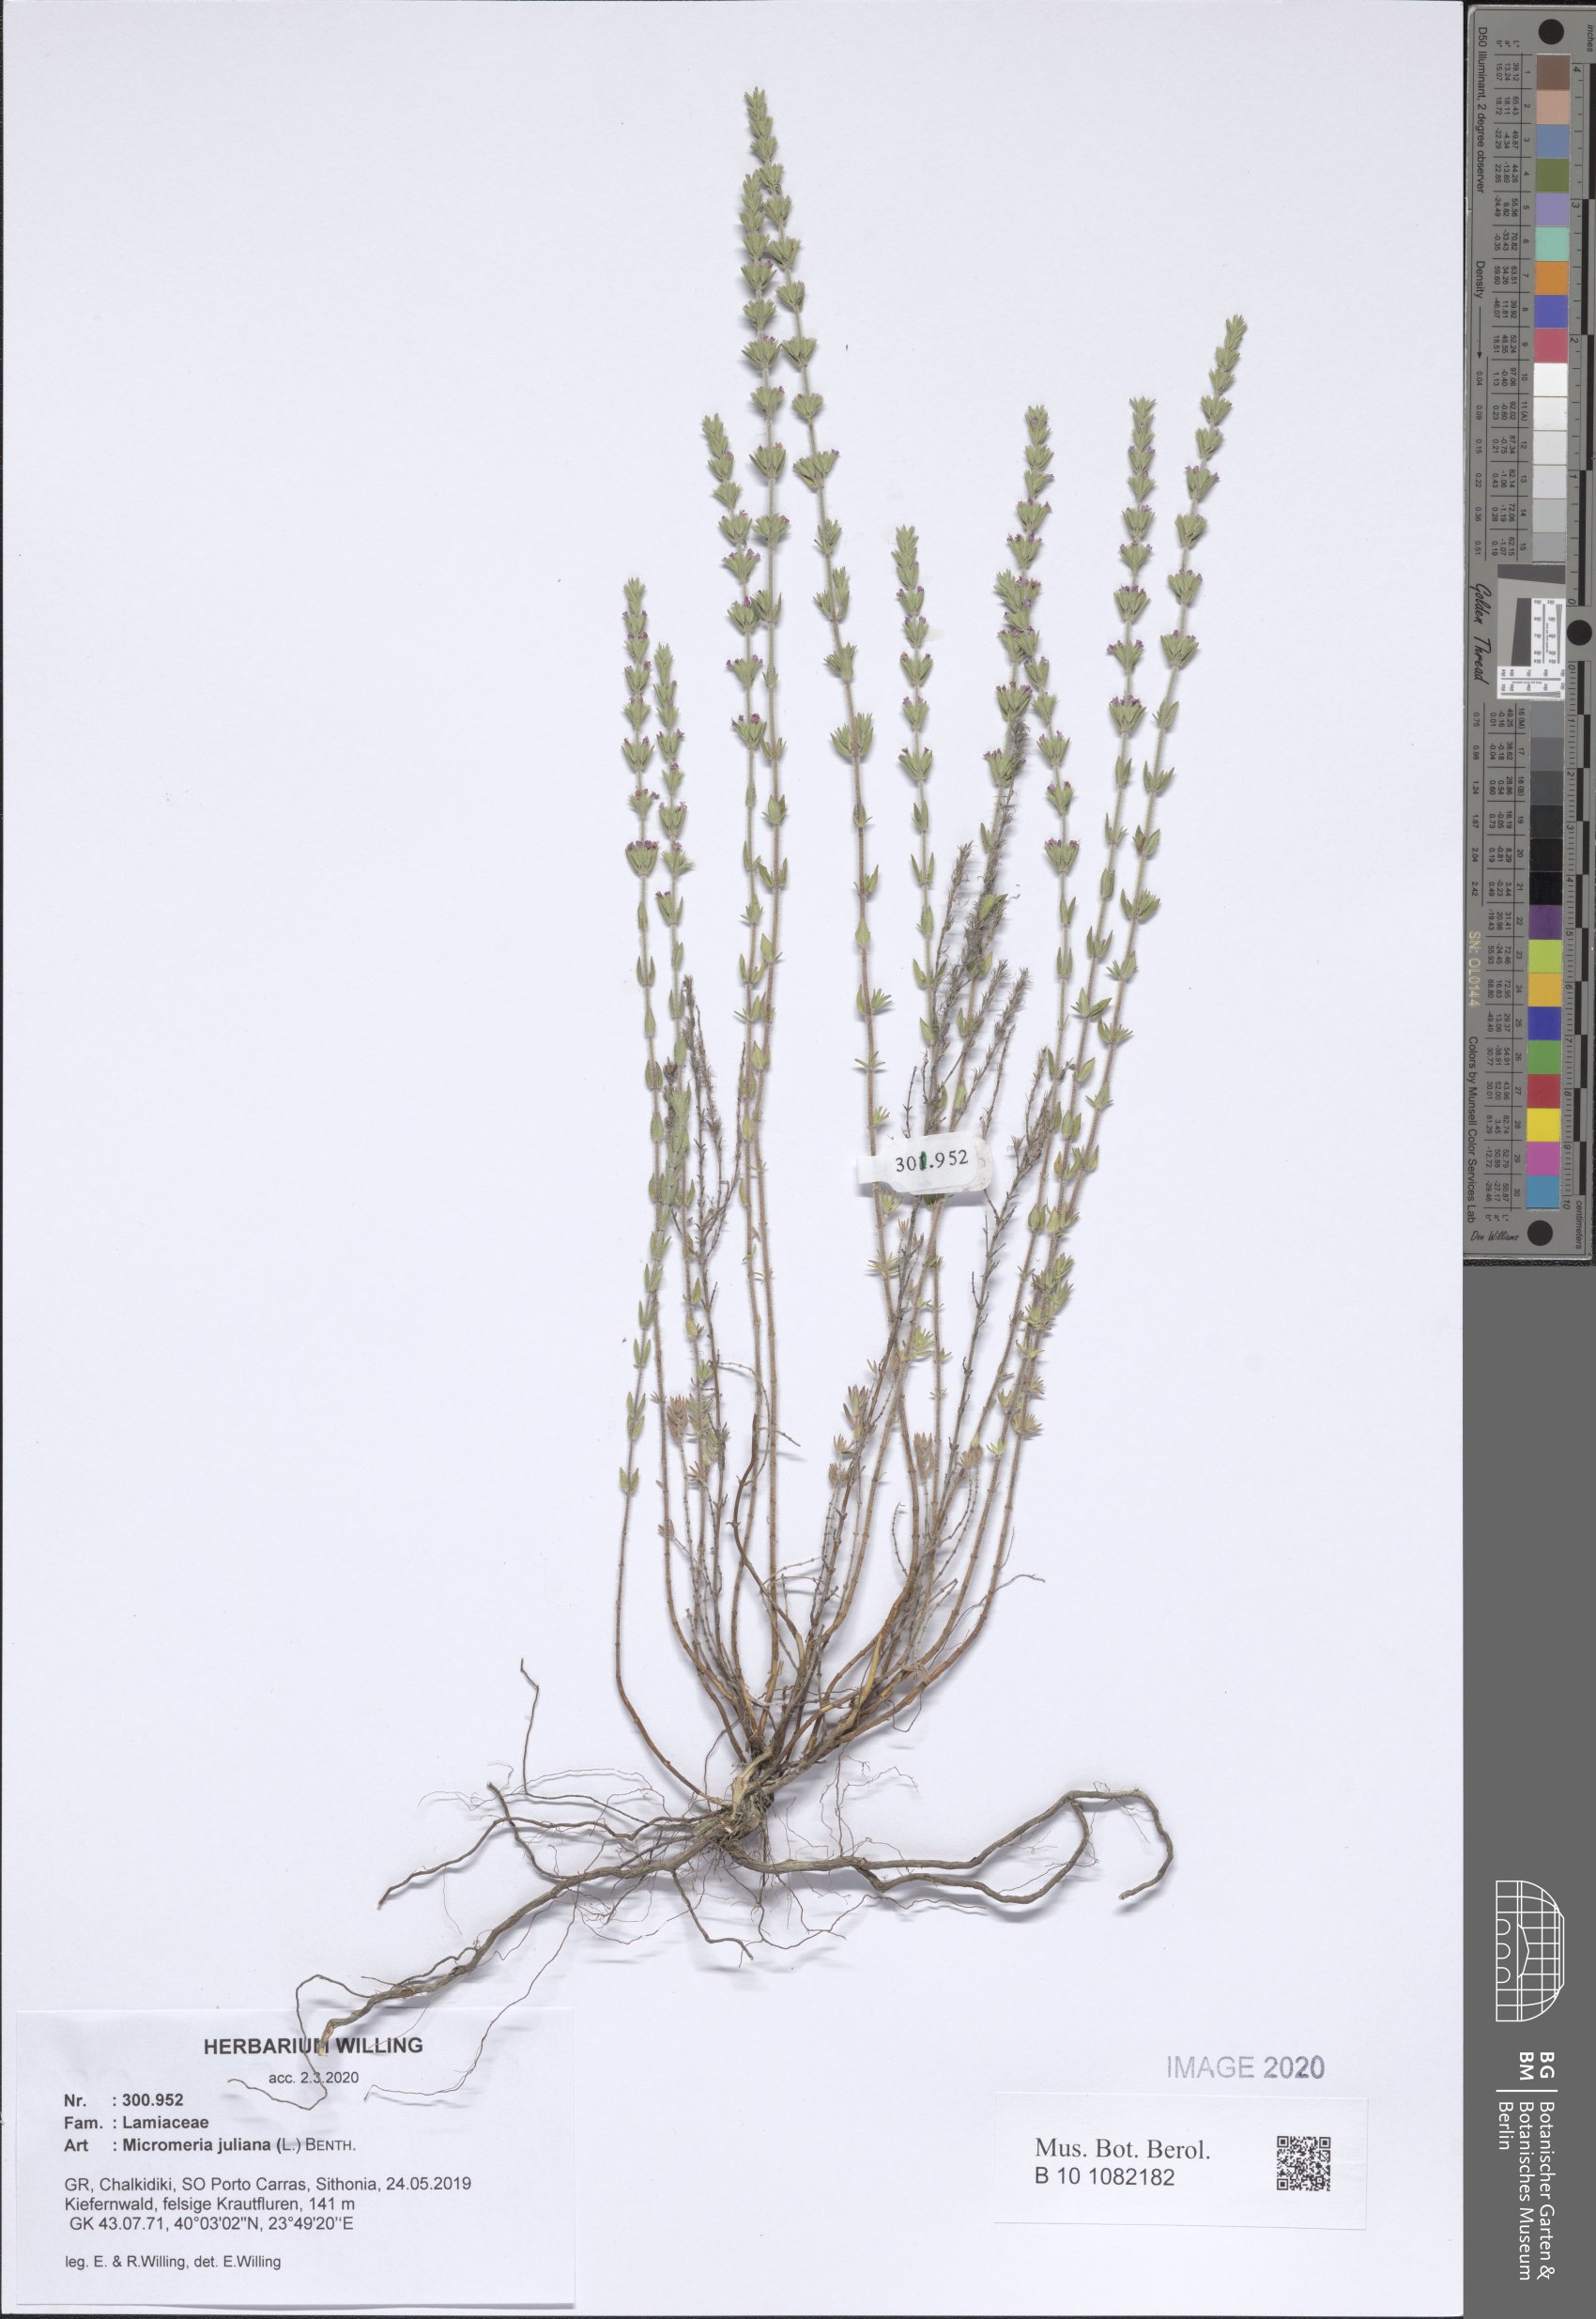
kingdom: Plantae
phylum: Tracheophyta
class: Magnoliopsida
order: Lamiales
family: Lamiaceae
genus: Micromeria
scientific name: Micromeria juliana
